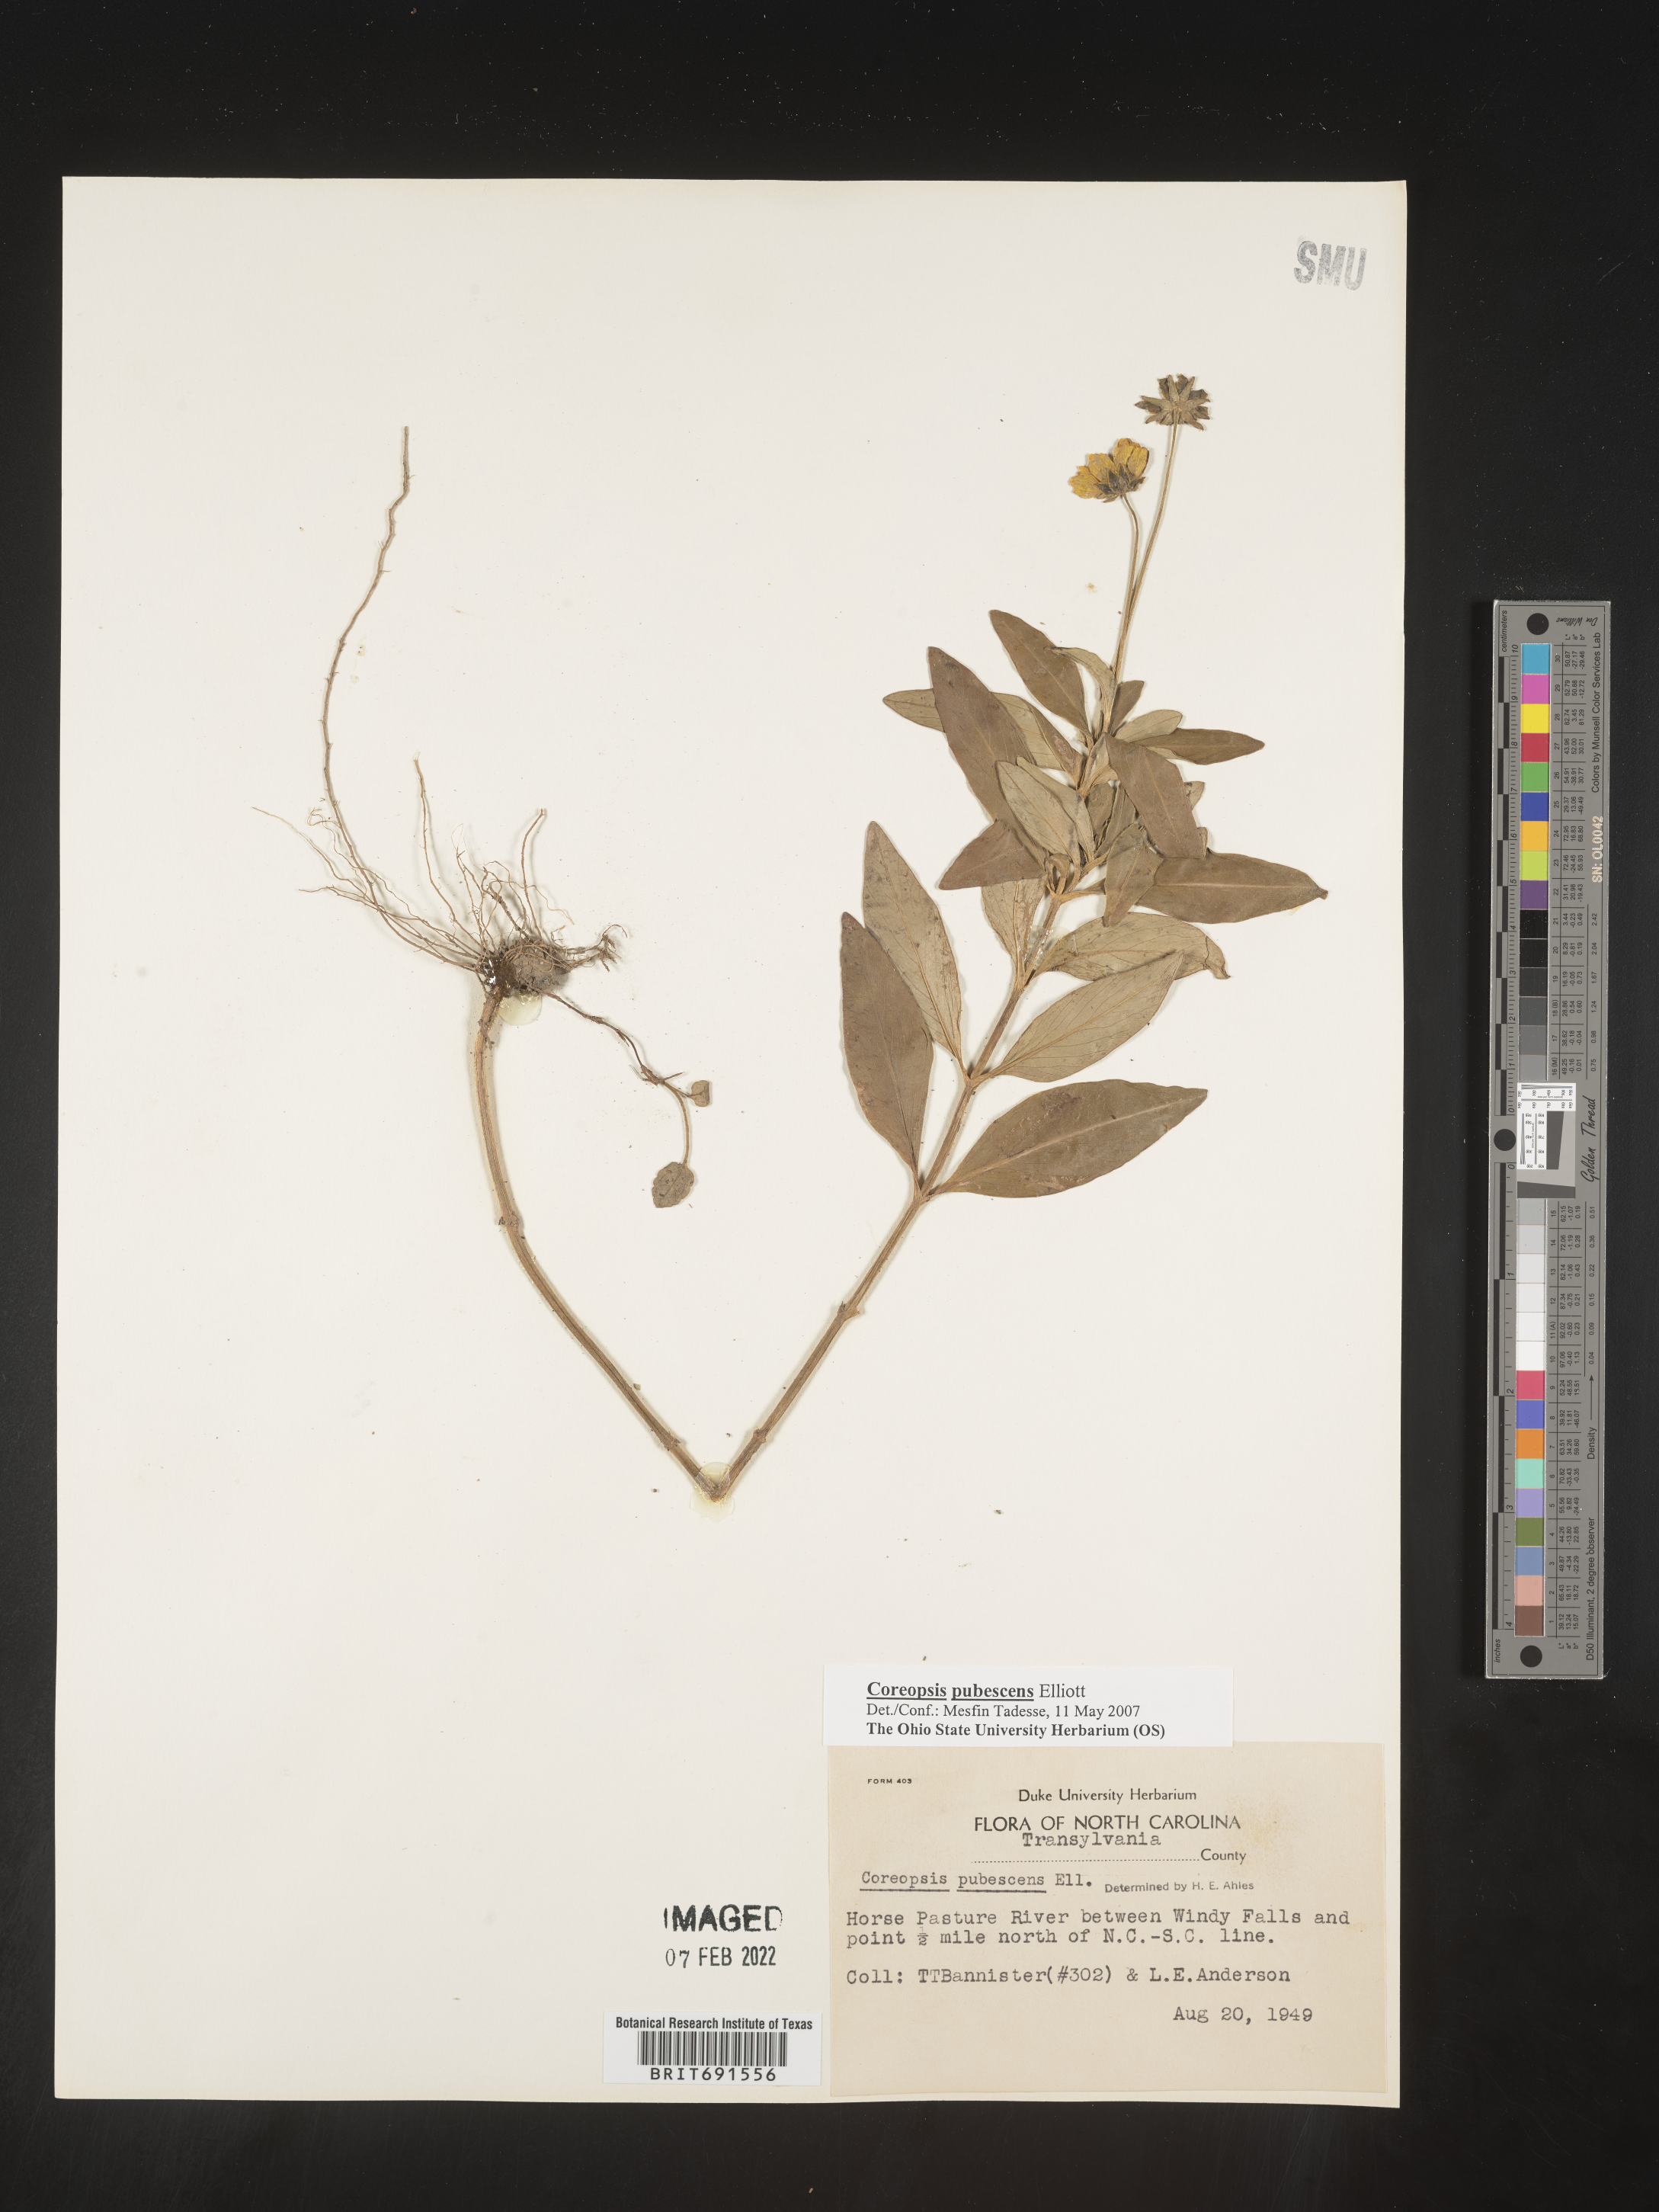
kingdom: Plantae
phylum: Tracheophyta
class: Magnoliopsida
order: Asterales
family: Asteraceae
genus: Coreopsis
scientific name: Coreopsis pubescens
